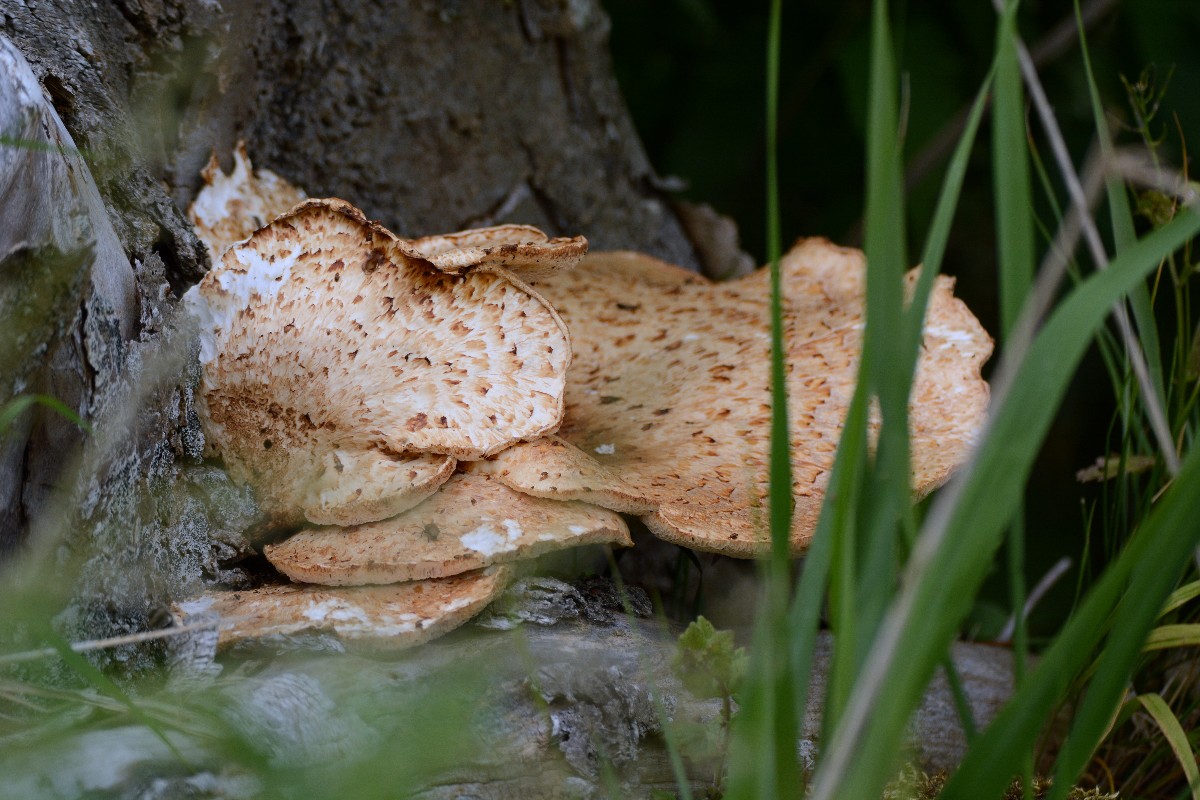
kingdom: Fungi
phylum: Basidiomycota
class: Agaricomycetes
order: Polyporales
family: Polyporaceae
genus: Cerioporus
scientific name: Cerioporus squamosus
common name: skællet stilkporesvamp
